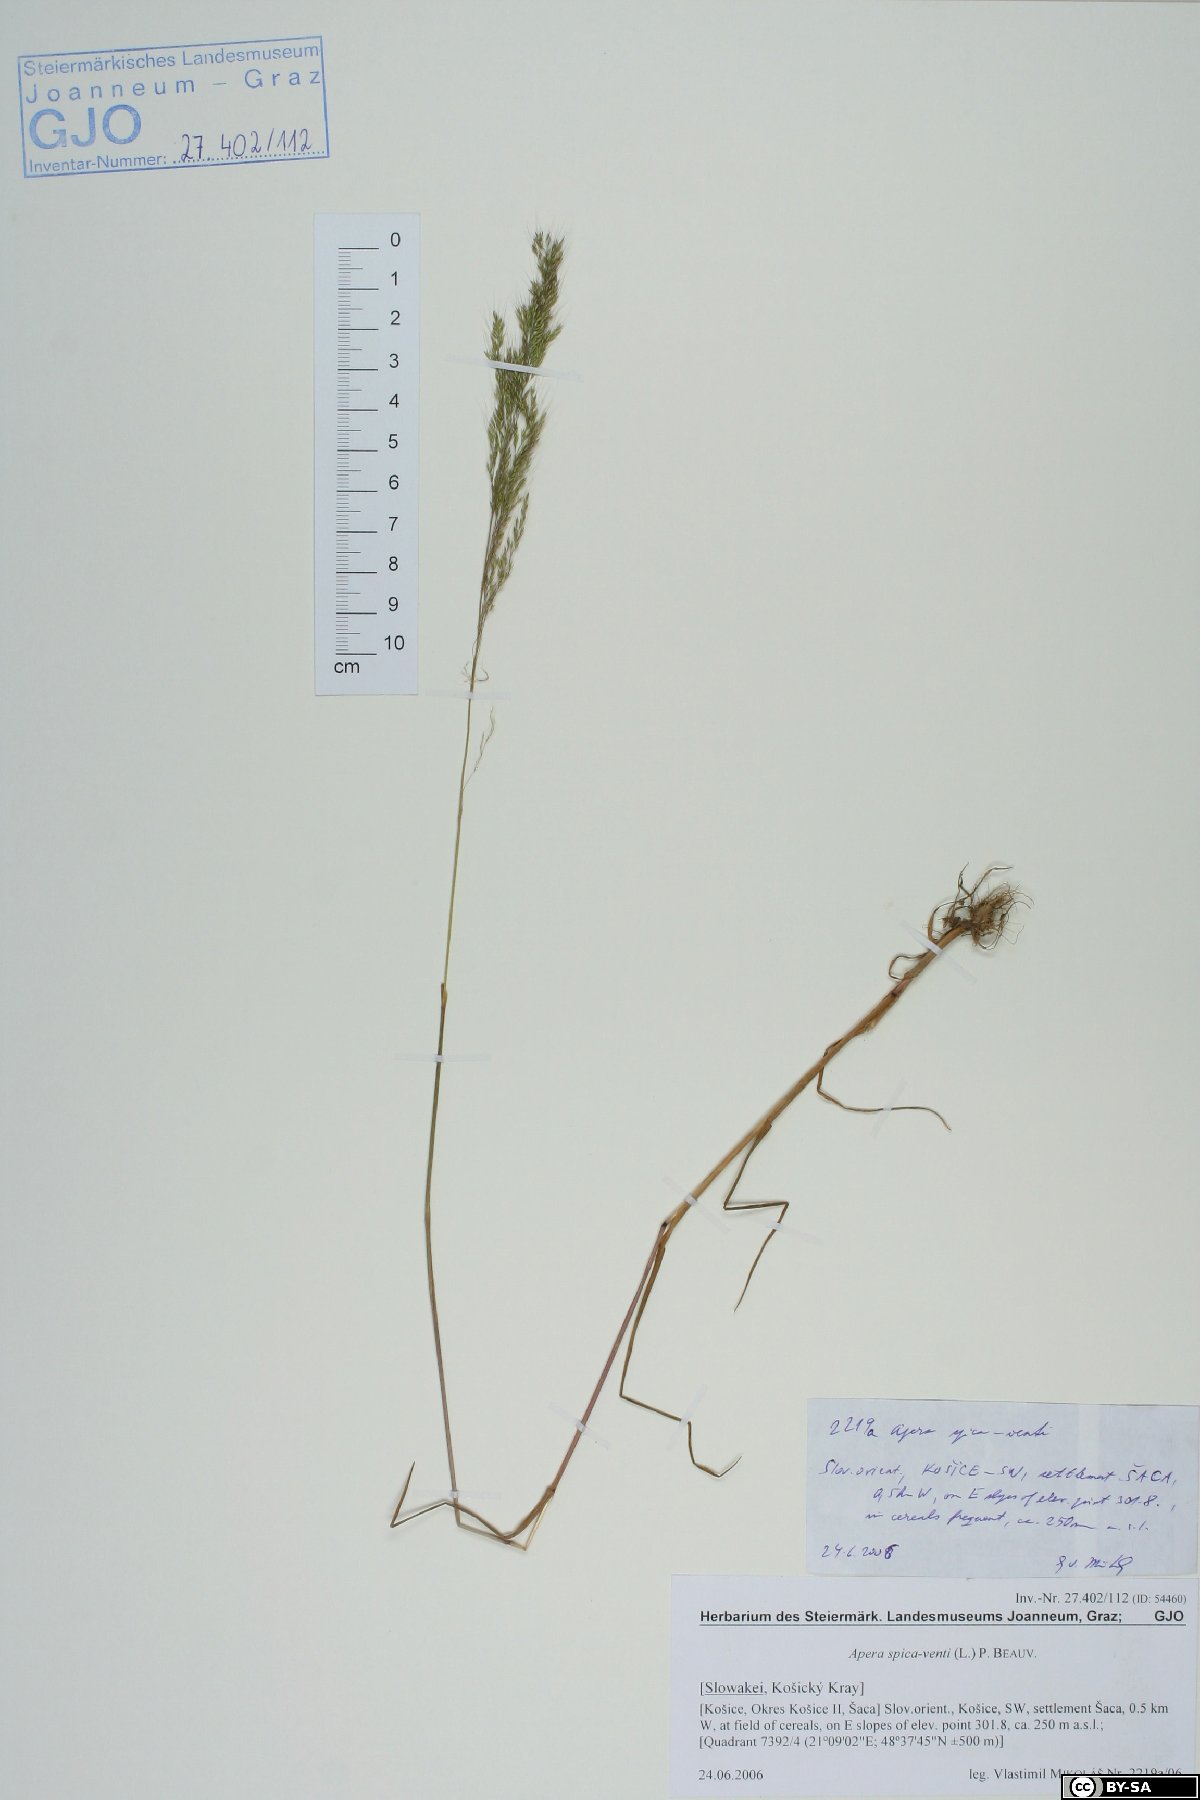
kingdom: Plantae
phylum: Tracheophyta
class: Liliopsida
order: Poales
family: Poaceae
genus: Apera
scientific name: Apera spica-venti
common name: Loose silky-bent
